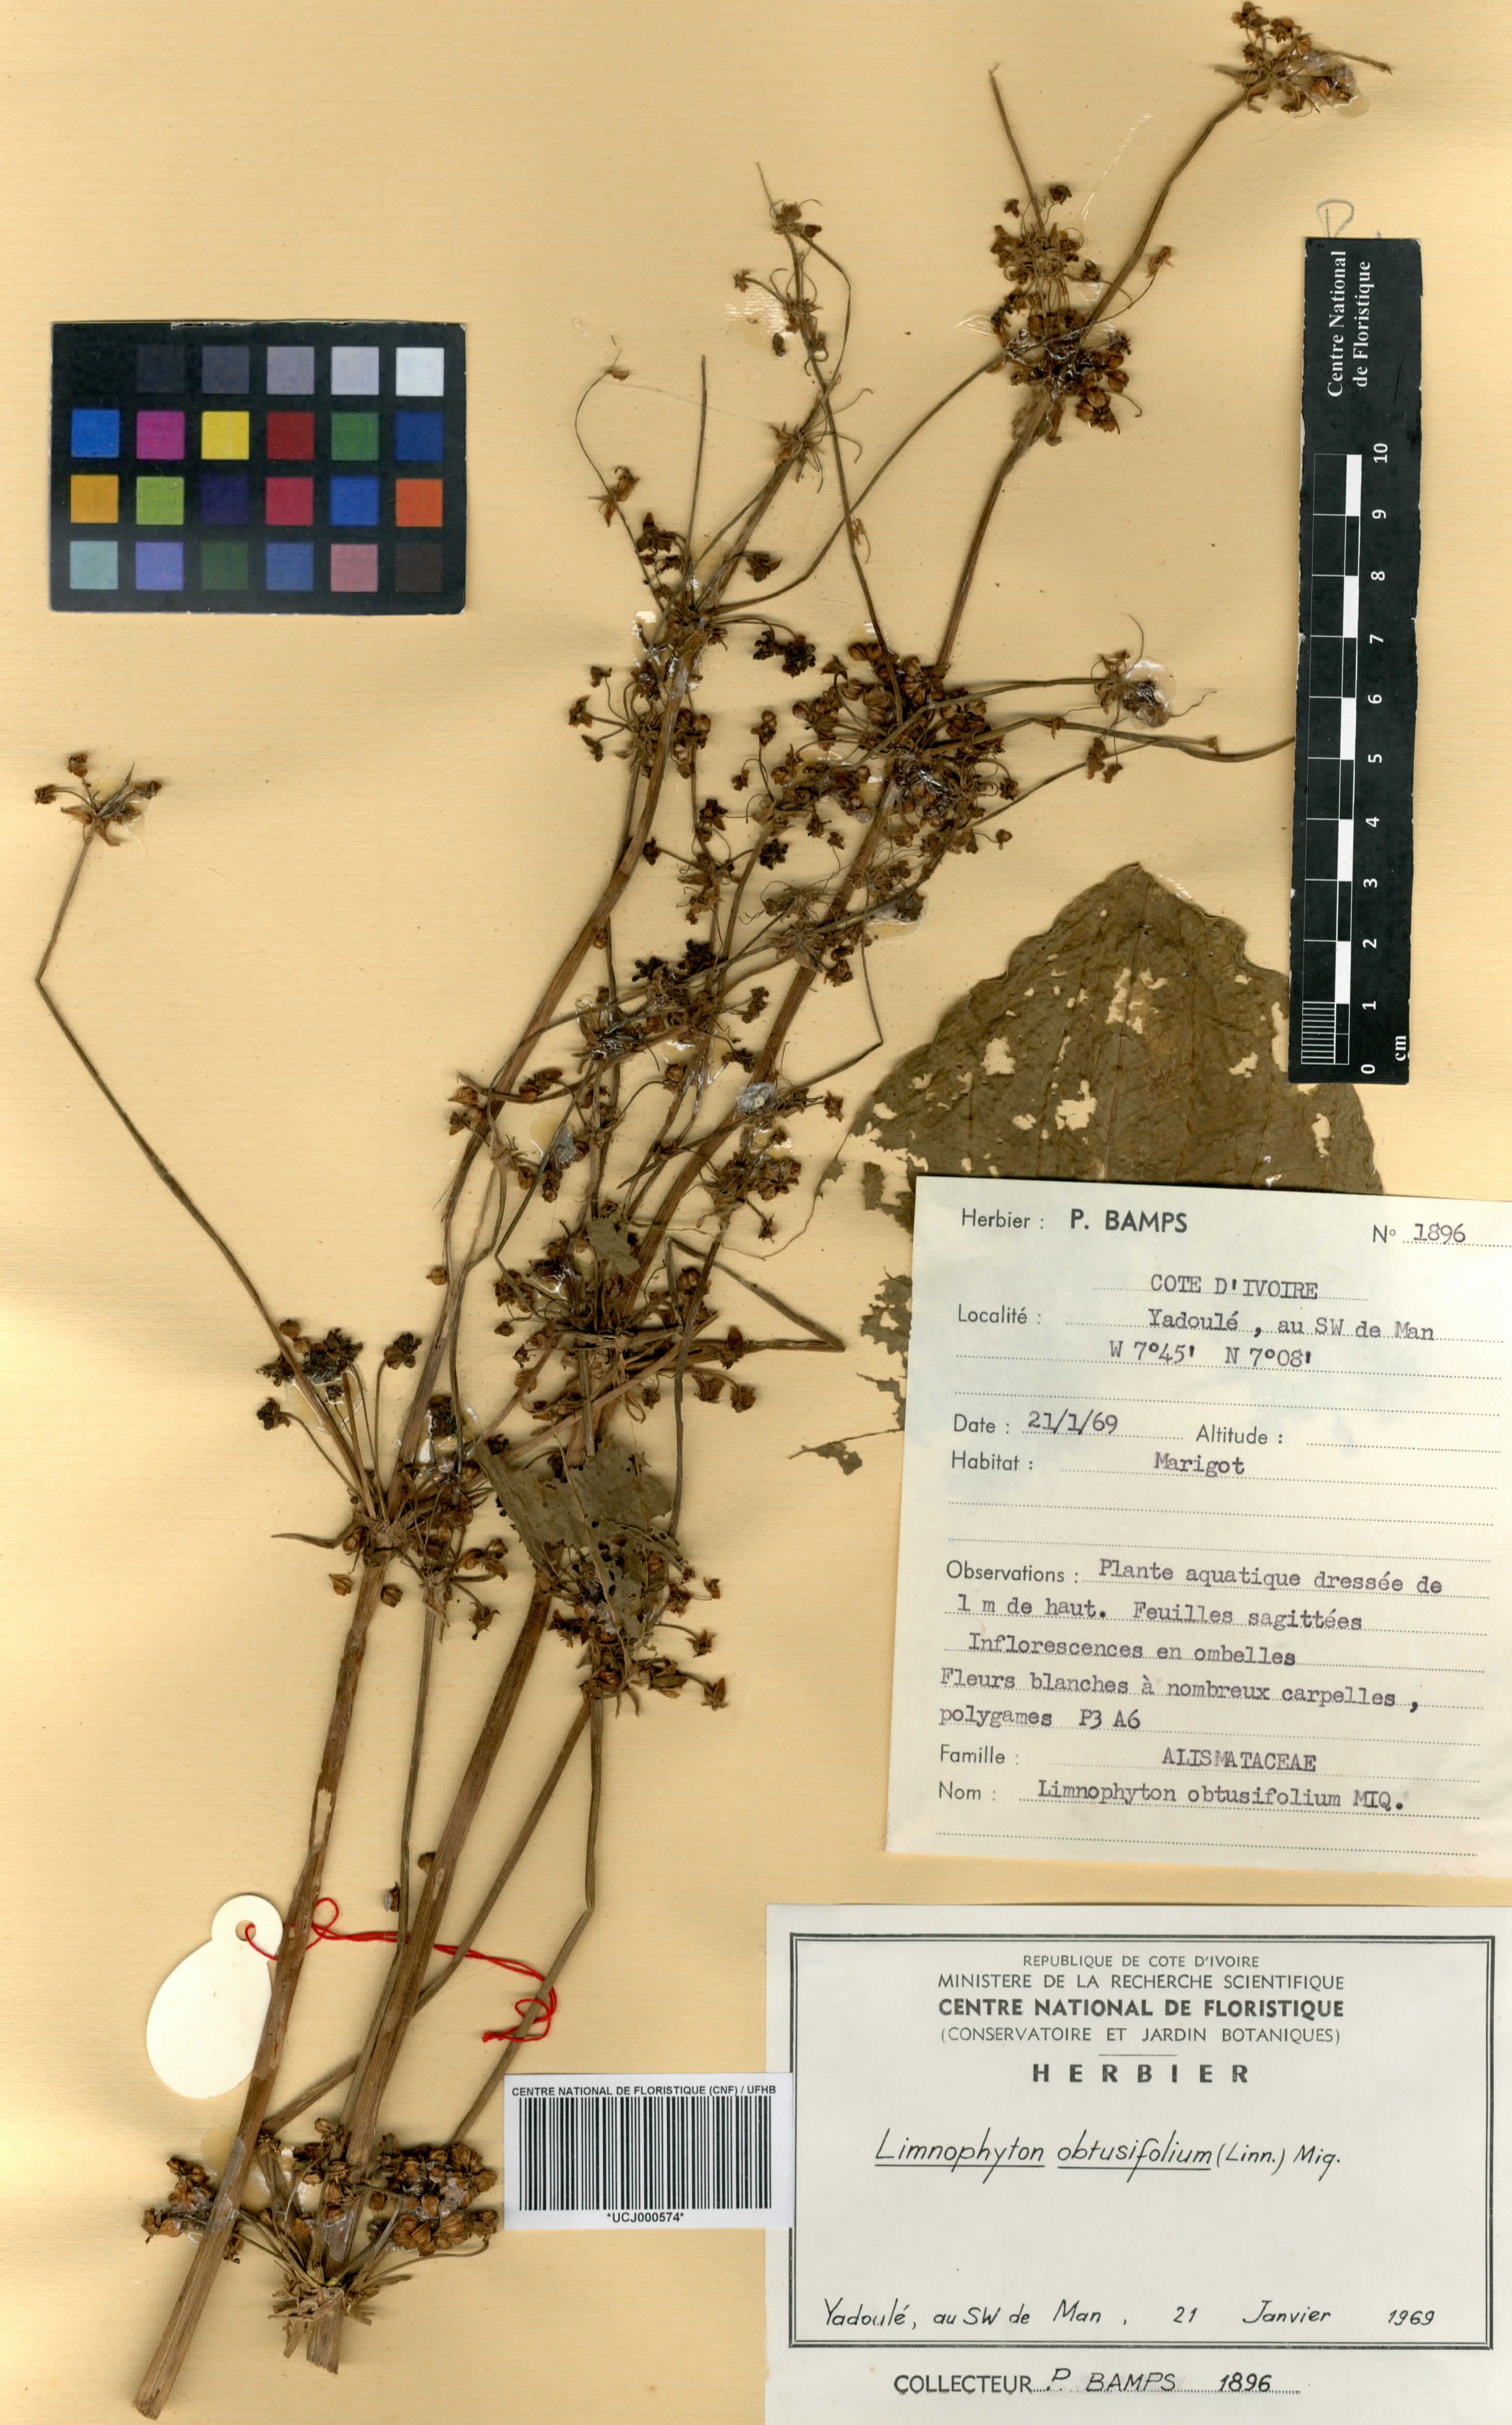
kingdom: Plantae
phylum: Tracheophyta
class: Liliopsida
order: Alismatales
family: Alismataceae
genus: Limnophyton
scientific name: Limnophyton obtusifolium
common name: Arrow head
